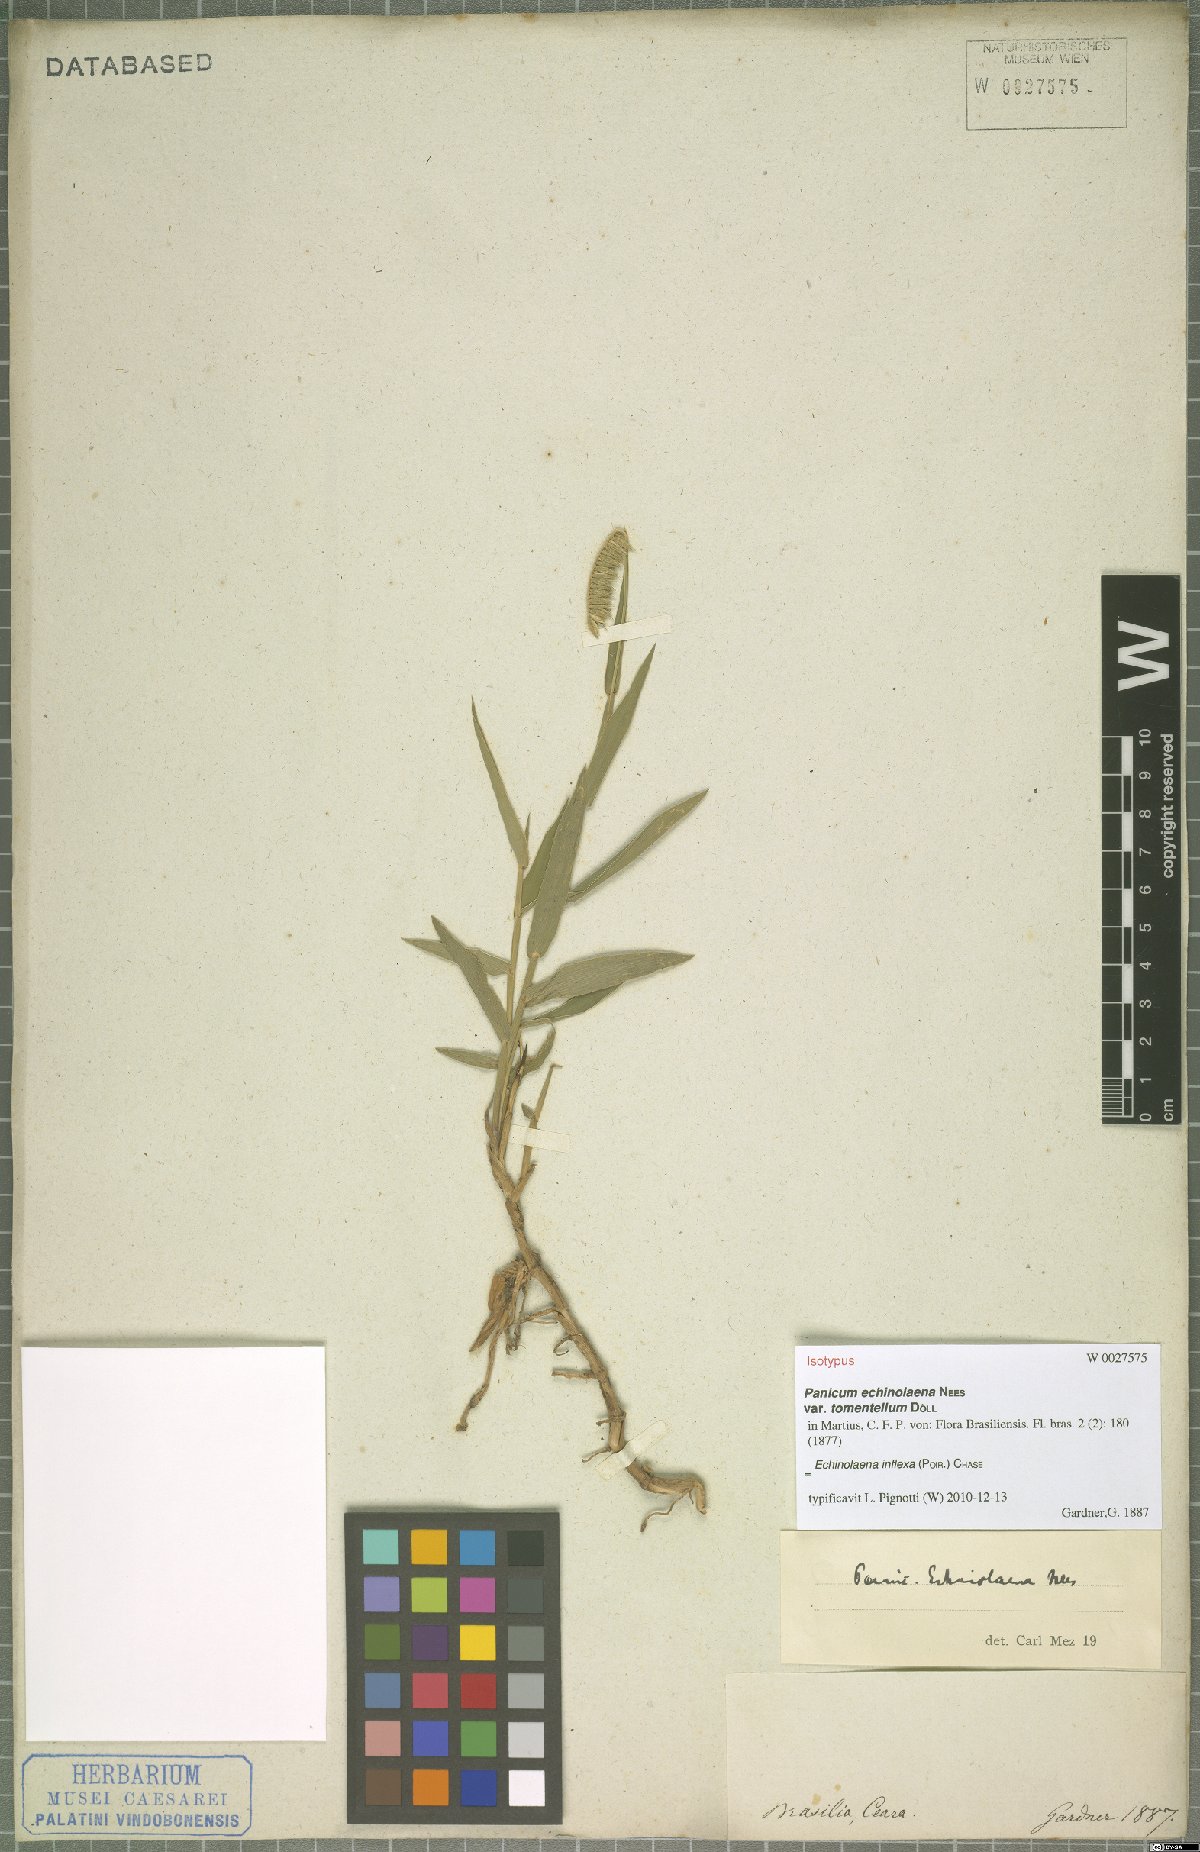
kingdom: Plantae
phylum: Tracheophyta
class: Liliopsida
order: Poales
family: Poaceae
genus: Echinolaena
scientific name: Echinolaena inflexa
